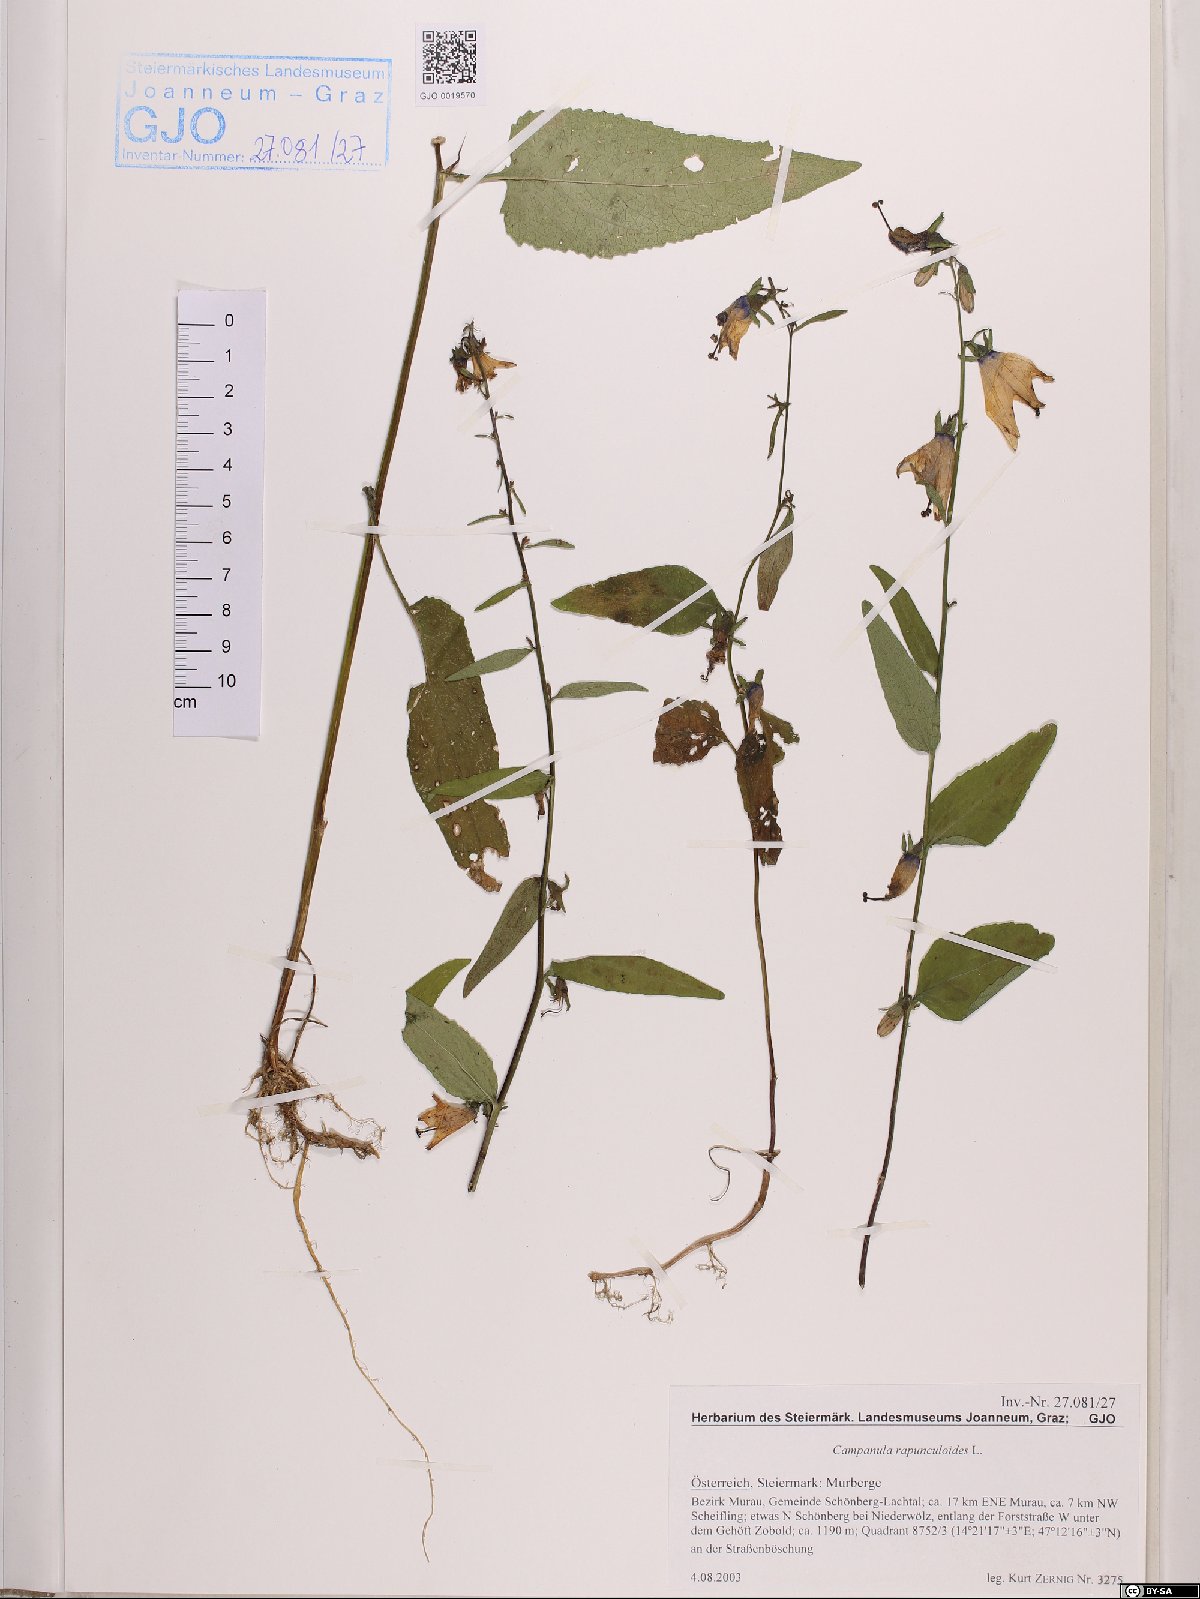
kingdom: Plantae
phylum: Tracheophyta
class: Magnoliopsida
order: Asterales
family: Campanulaceae
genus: Campanula
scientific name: Campanula rapunculoides
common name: Creeping bellflower
